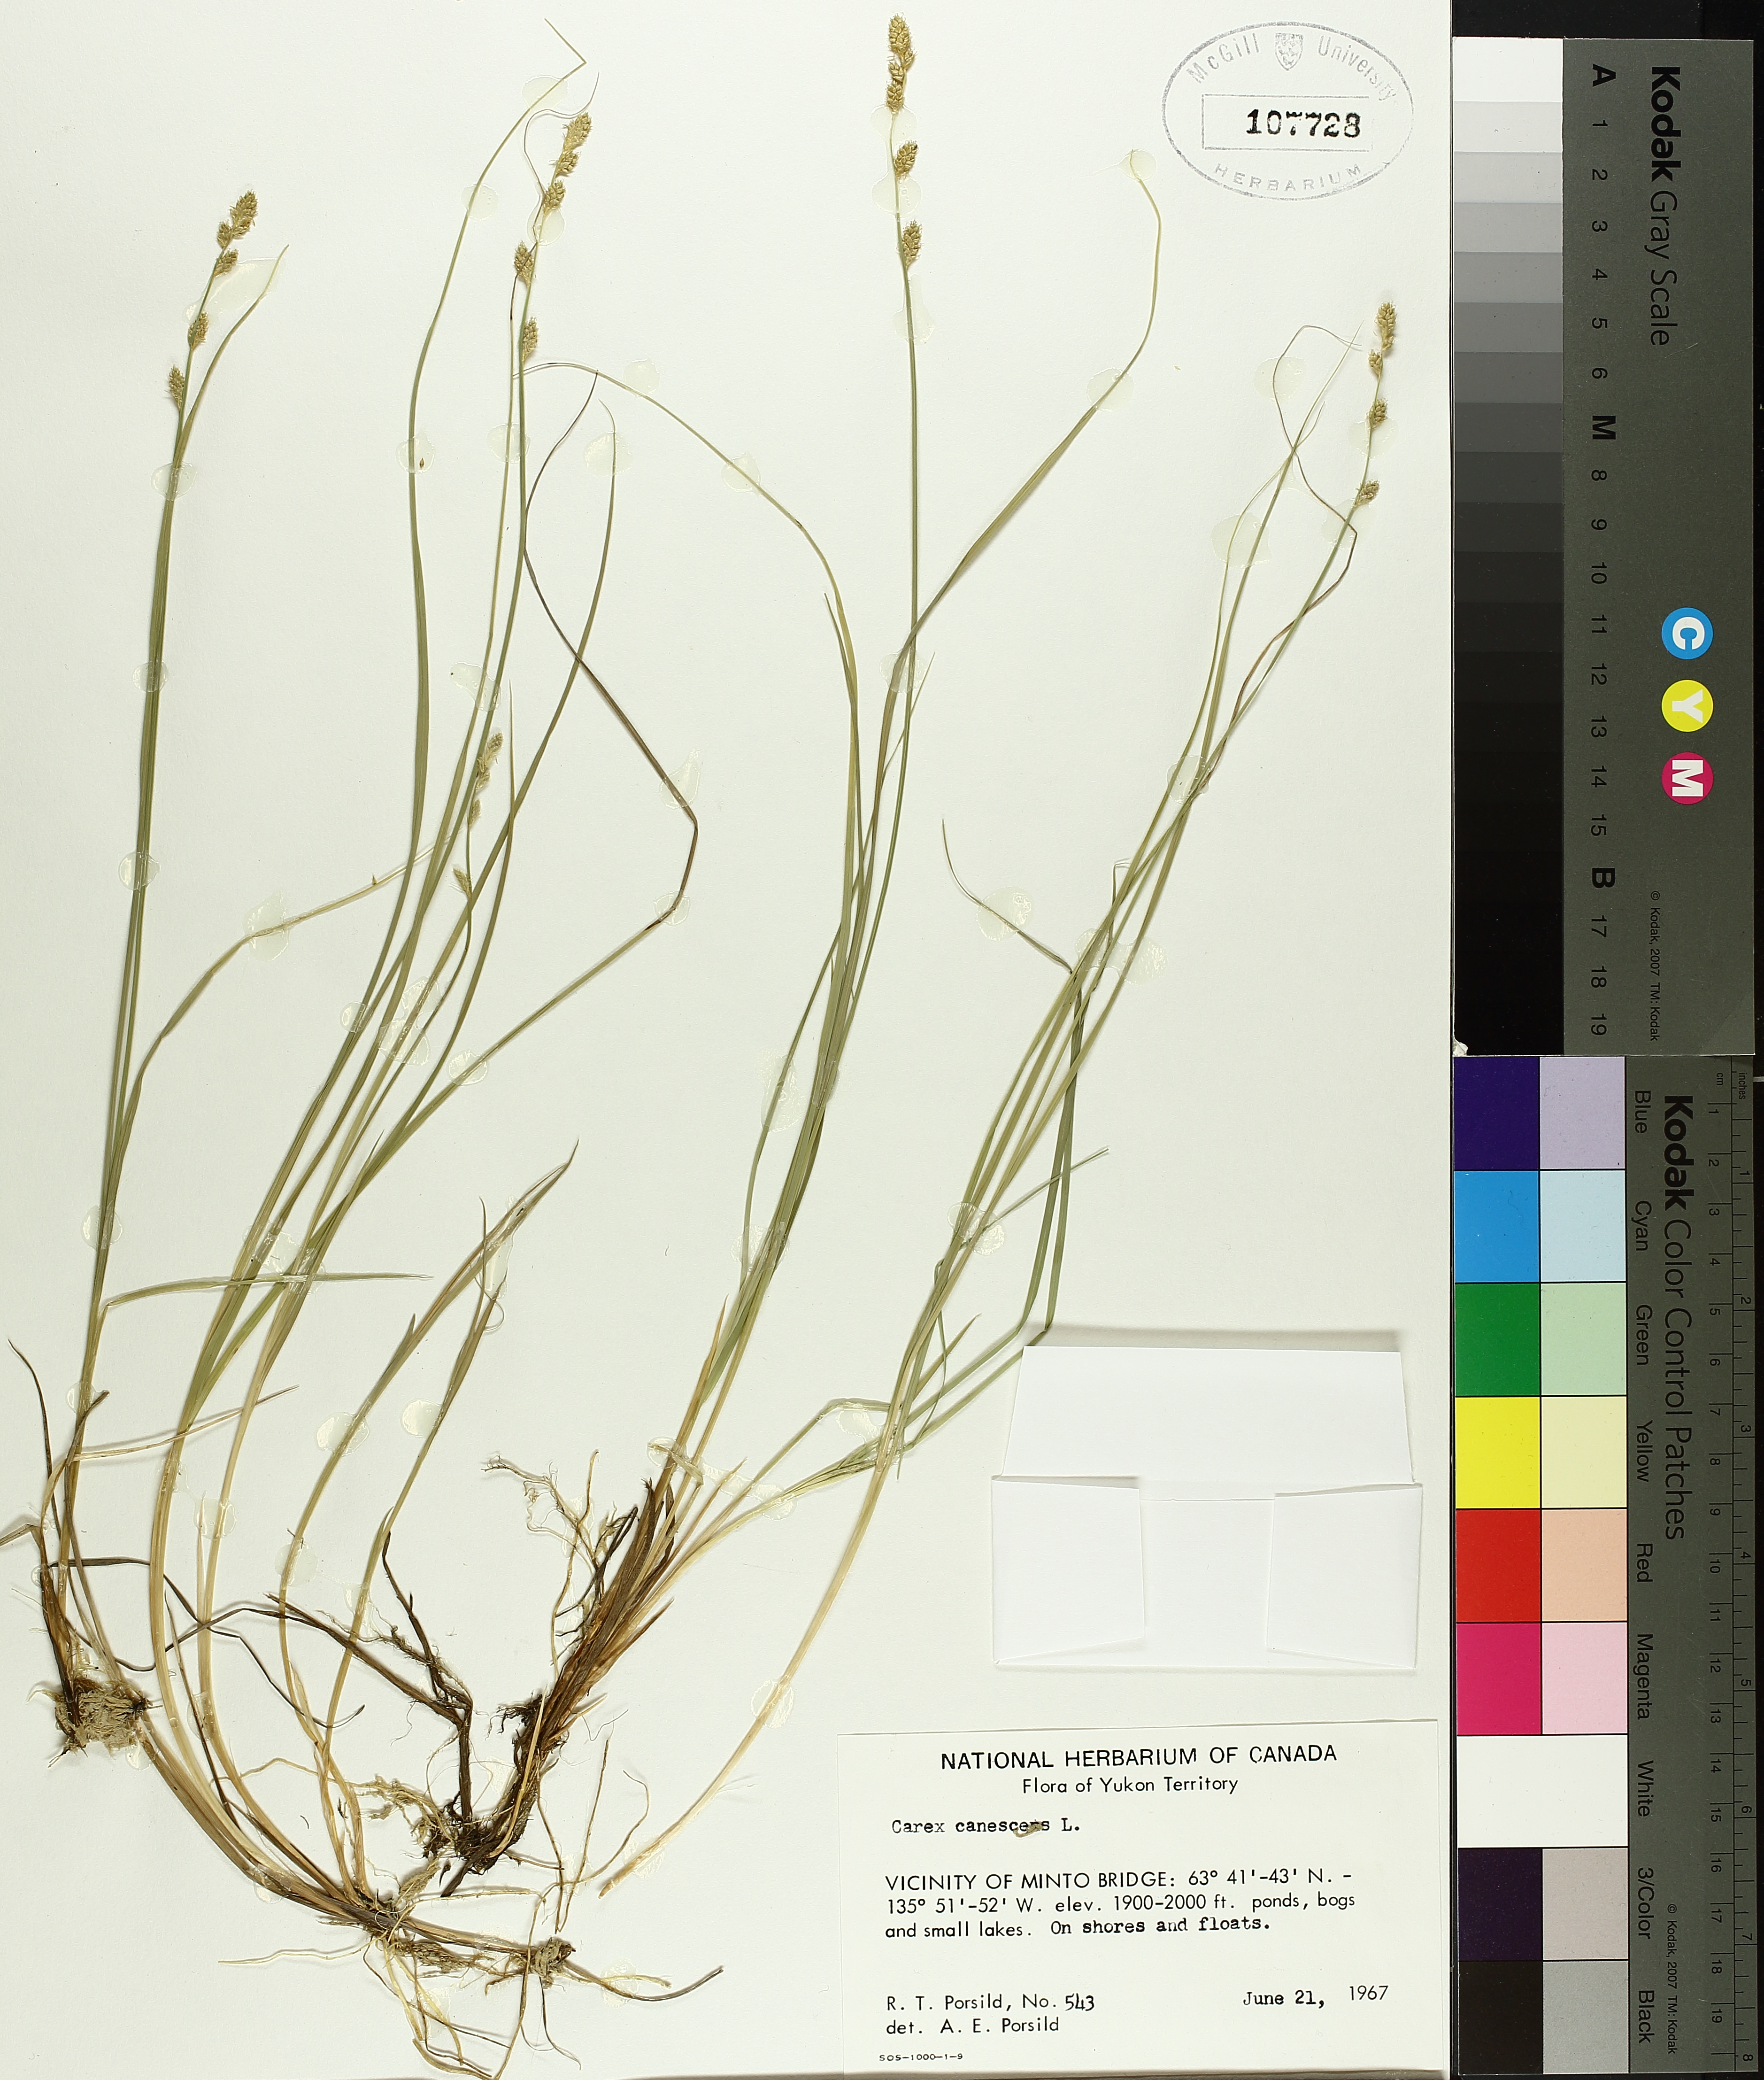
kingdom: Plantae
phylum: Tracheophyta
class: Liliopsida
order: Poales
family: Cyperaceae
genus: Carex
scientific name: Carex canescens
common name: White sedge
